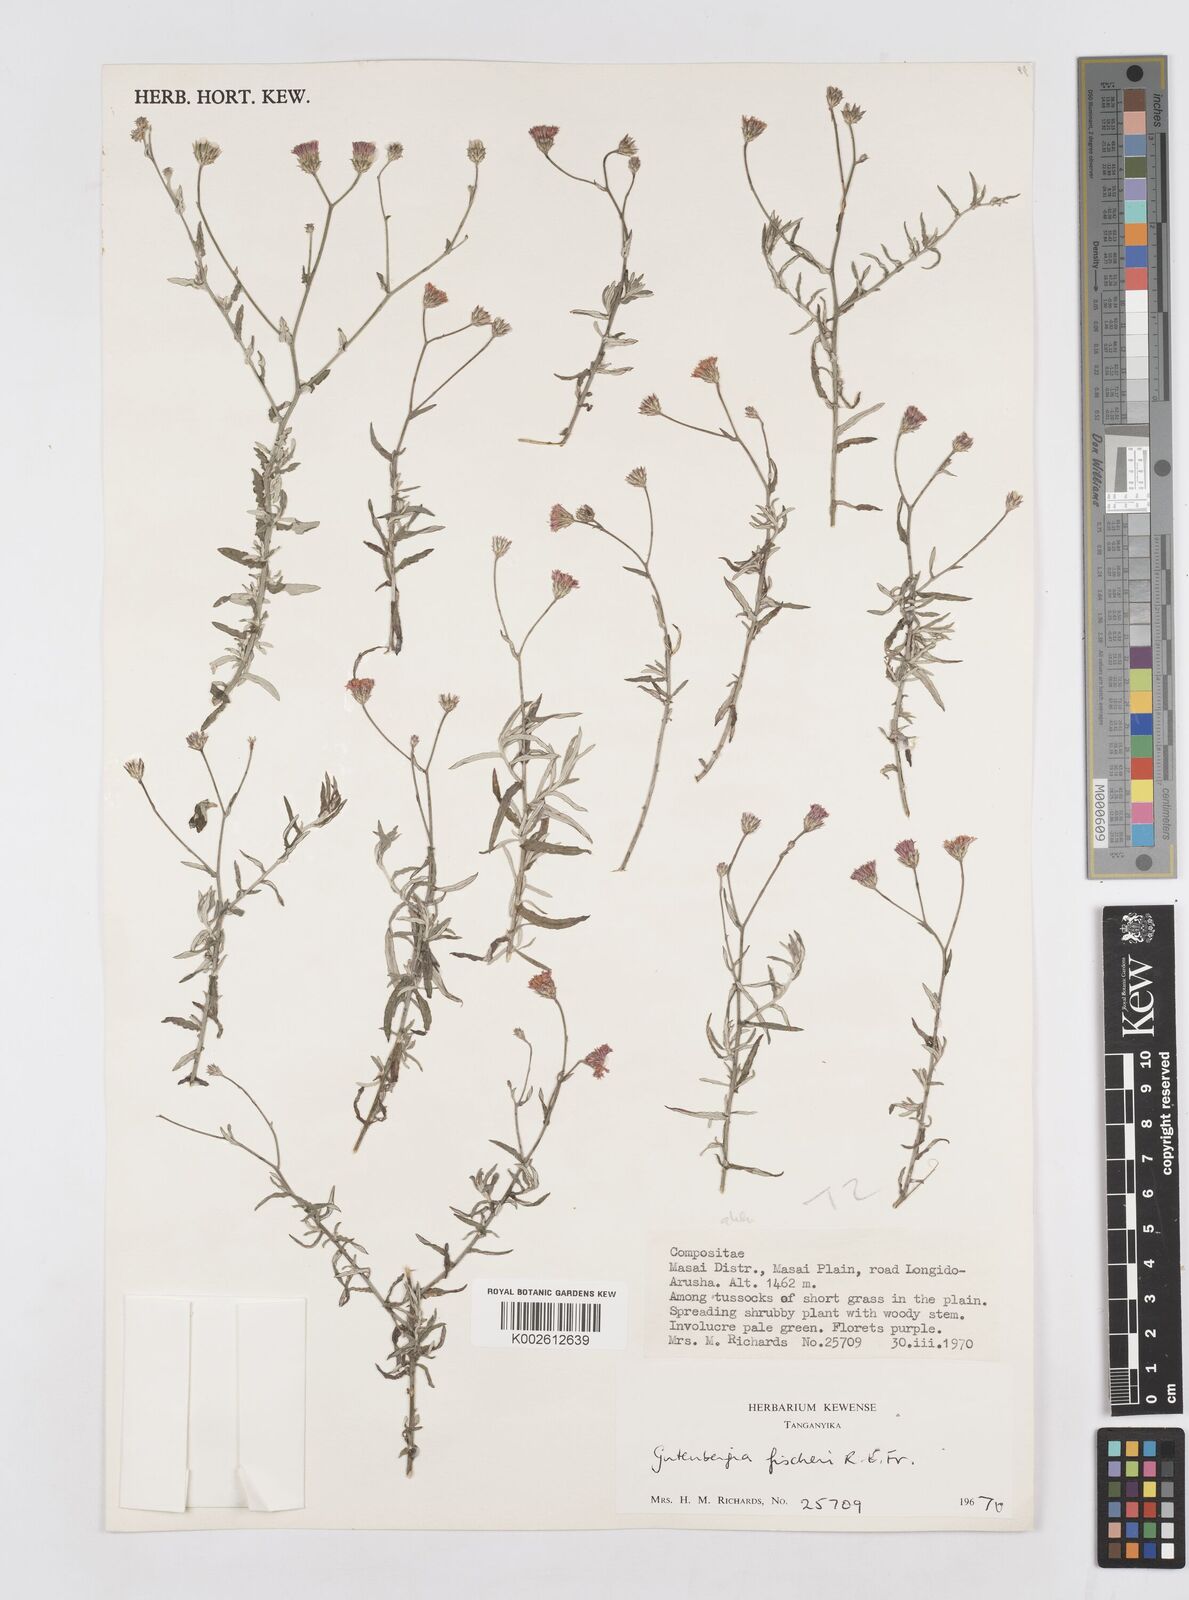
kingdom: Plantae
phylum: Tracheophyta
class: Magnoliopsida
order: Asterales
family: Asteraceae
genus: Gutenbergia
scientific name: Gutenbergia rueppellii
